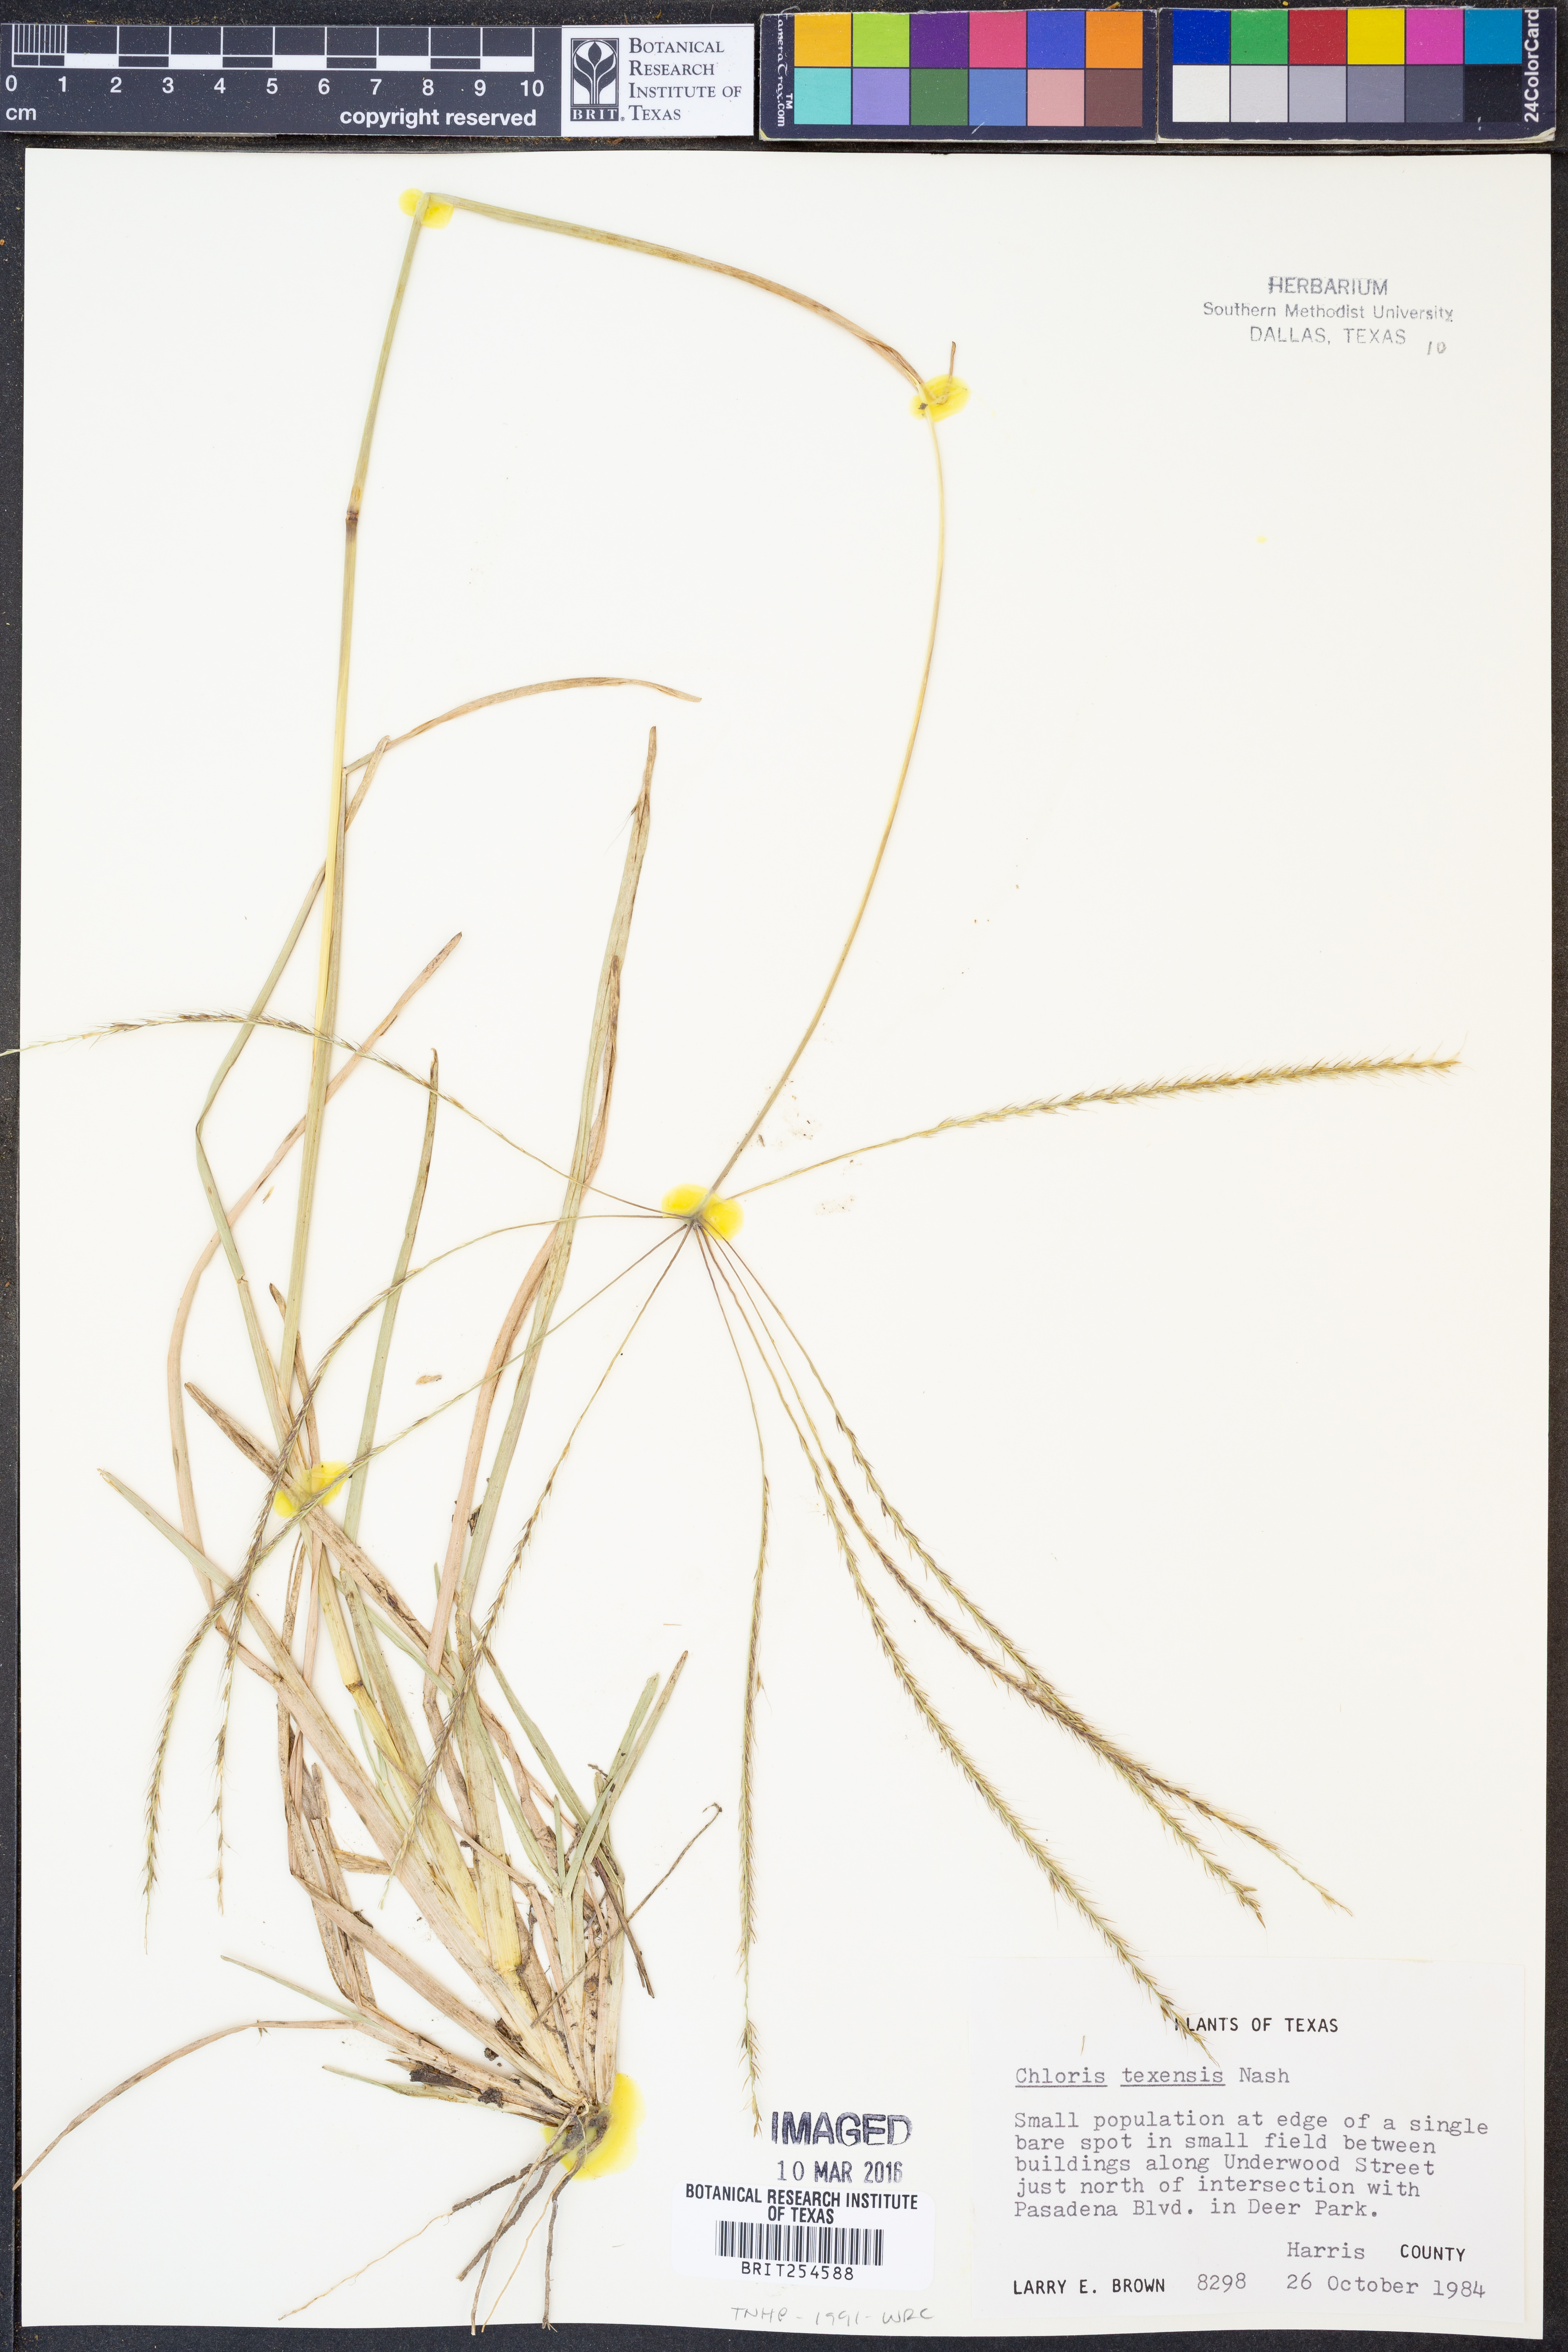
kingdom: Plantae
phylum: Tracheophyta
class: Liliopsida
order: Poales
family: Poaceae
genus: Chloris
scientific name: Chloris texensis
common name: Texas windmill grass
